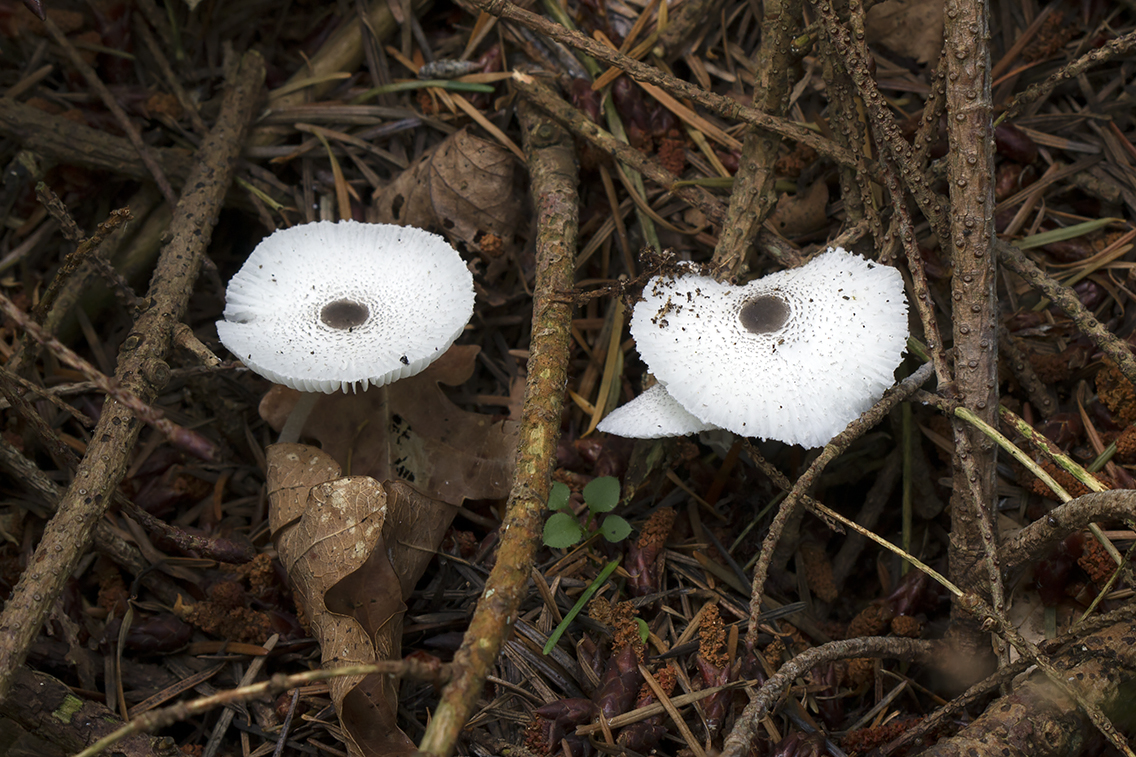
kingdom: Fungi
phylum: Basidiomycota
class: Agaricomycetes
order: Agaricales
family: Agaricaceae
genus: Leucocoprinus
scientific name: Leucocoprinus brebissonii
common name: gråsort silkehat
